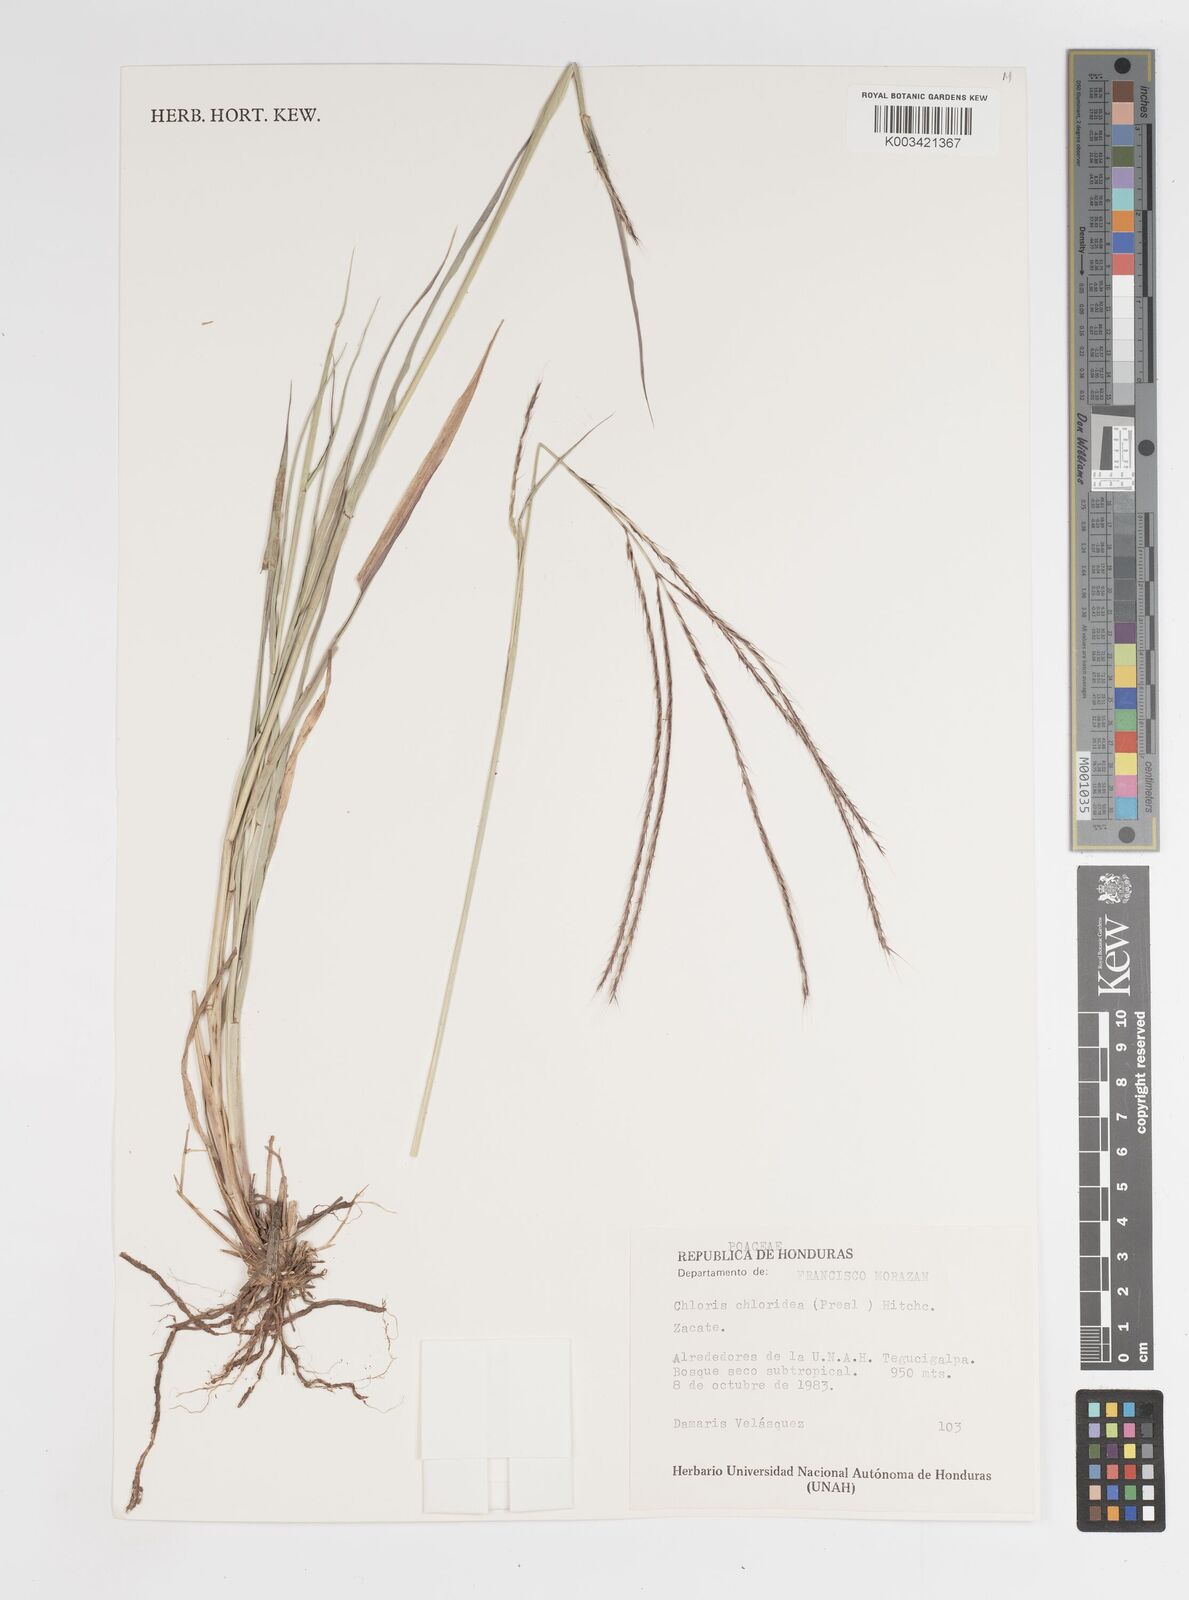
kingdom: Plantae
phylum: Tracheophyta
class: Liliopsida
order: Poales
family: Poaceae
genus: Tetrapogon
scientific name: Tetrapogon chlorideus
